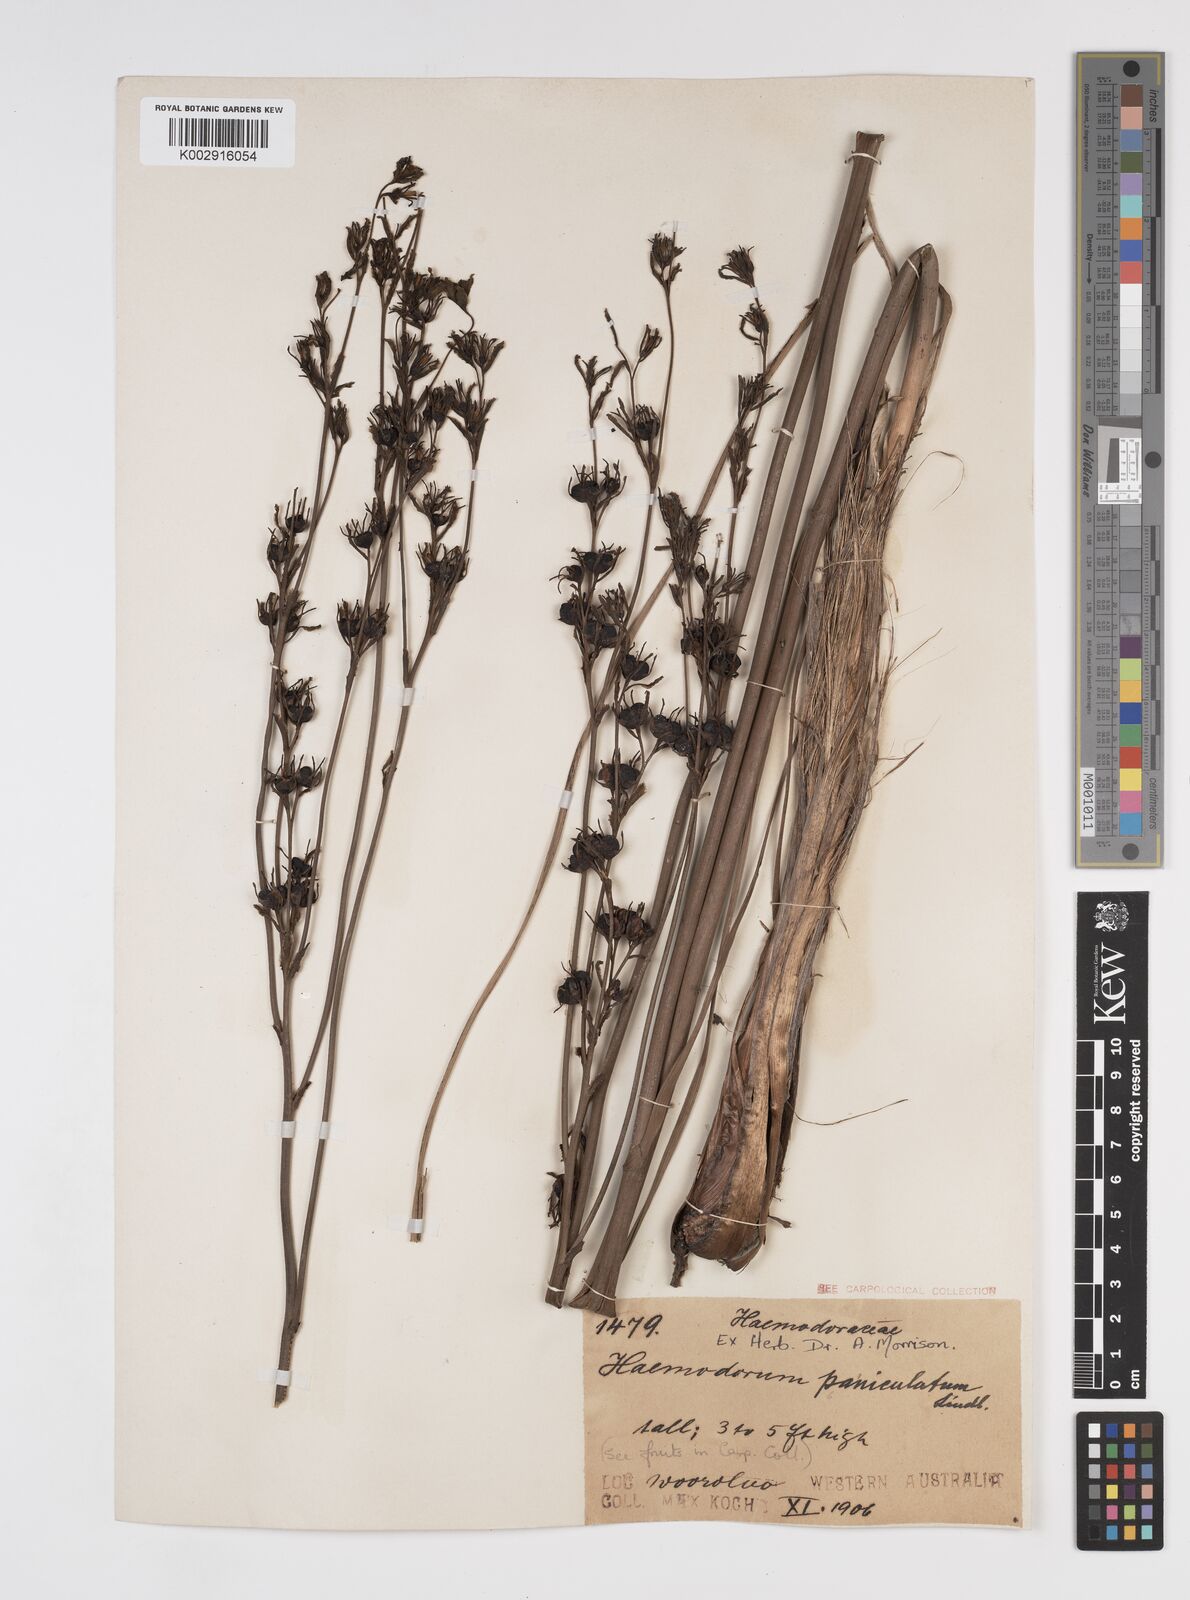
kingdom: Plantae
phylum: Tracheophyta
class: Liliopsida
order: Commelinales
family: Haemodoraceae
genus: Haemodorum
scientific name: Haemodorum paniculatum
